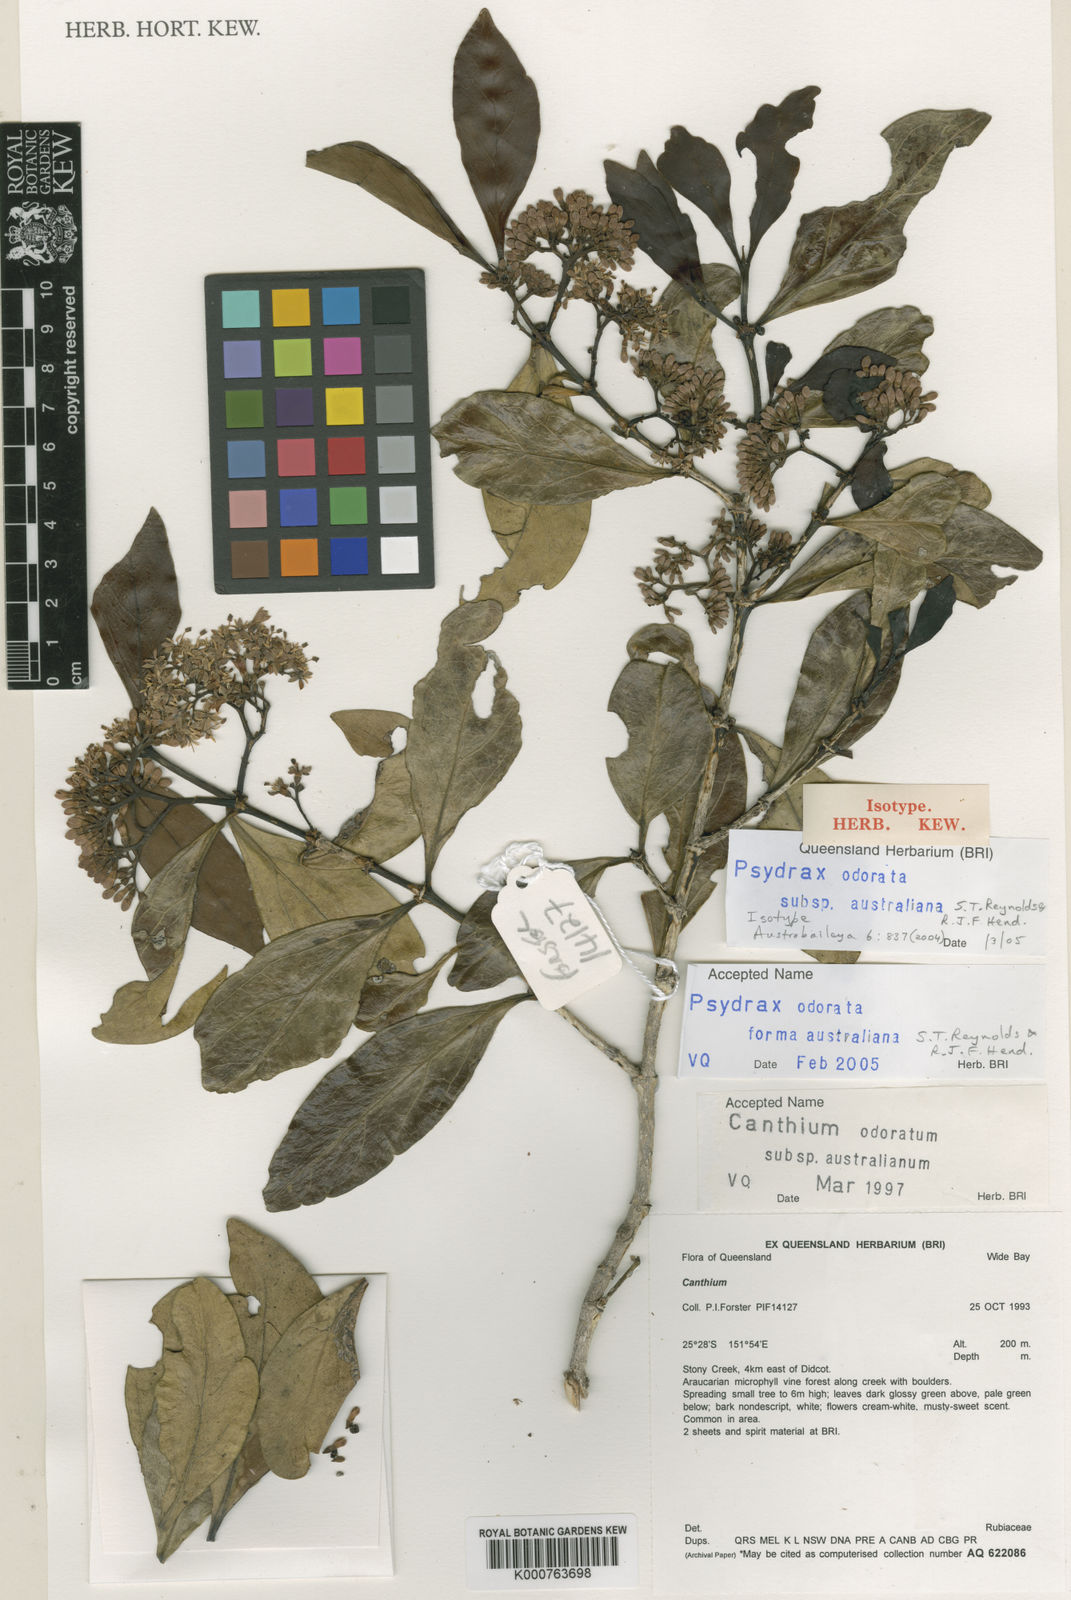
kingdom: Plantae
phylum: Tracheophyta
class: Magnoliopsida
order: Gentianales
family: Rubiaceae
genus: Psydrax
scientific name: Psydrax odoratus
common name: Alahe'e
